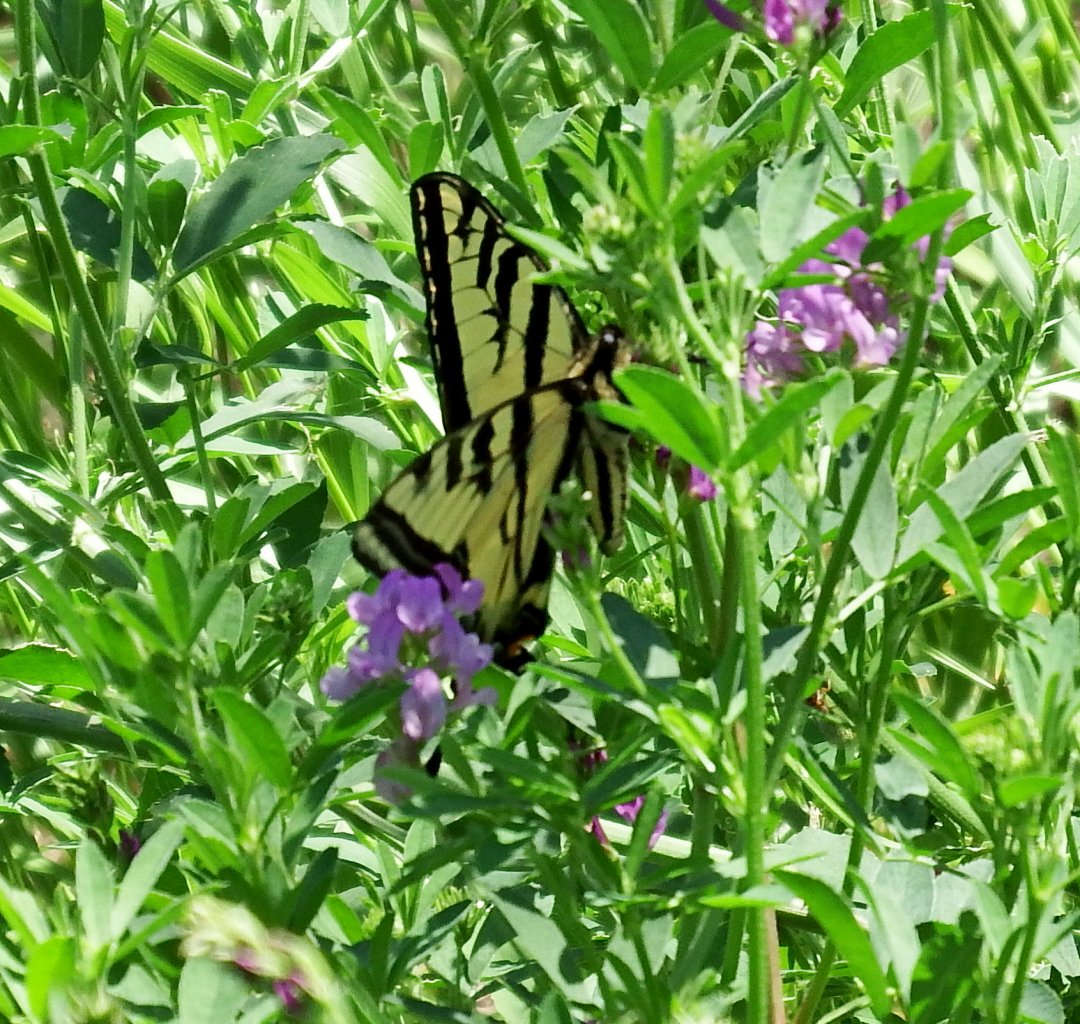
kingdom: Animalia
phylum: Arthropoda
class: Insecta
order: Lepidoptera
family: Papilionidae
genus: Pterourus
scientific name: Pterourus rutulus
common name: Western Tiger Swallowtail
